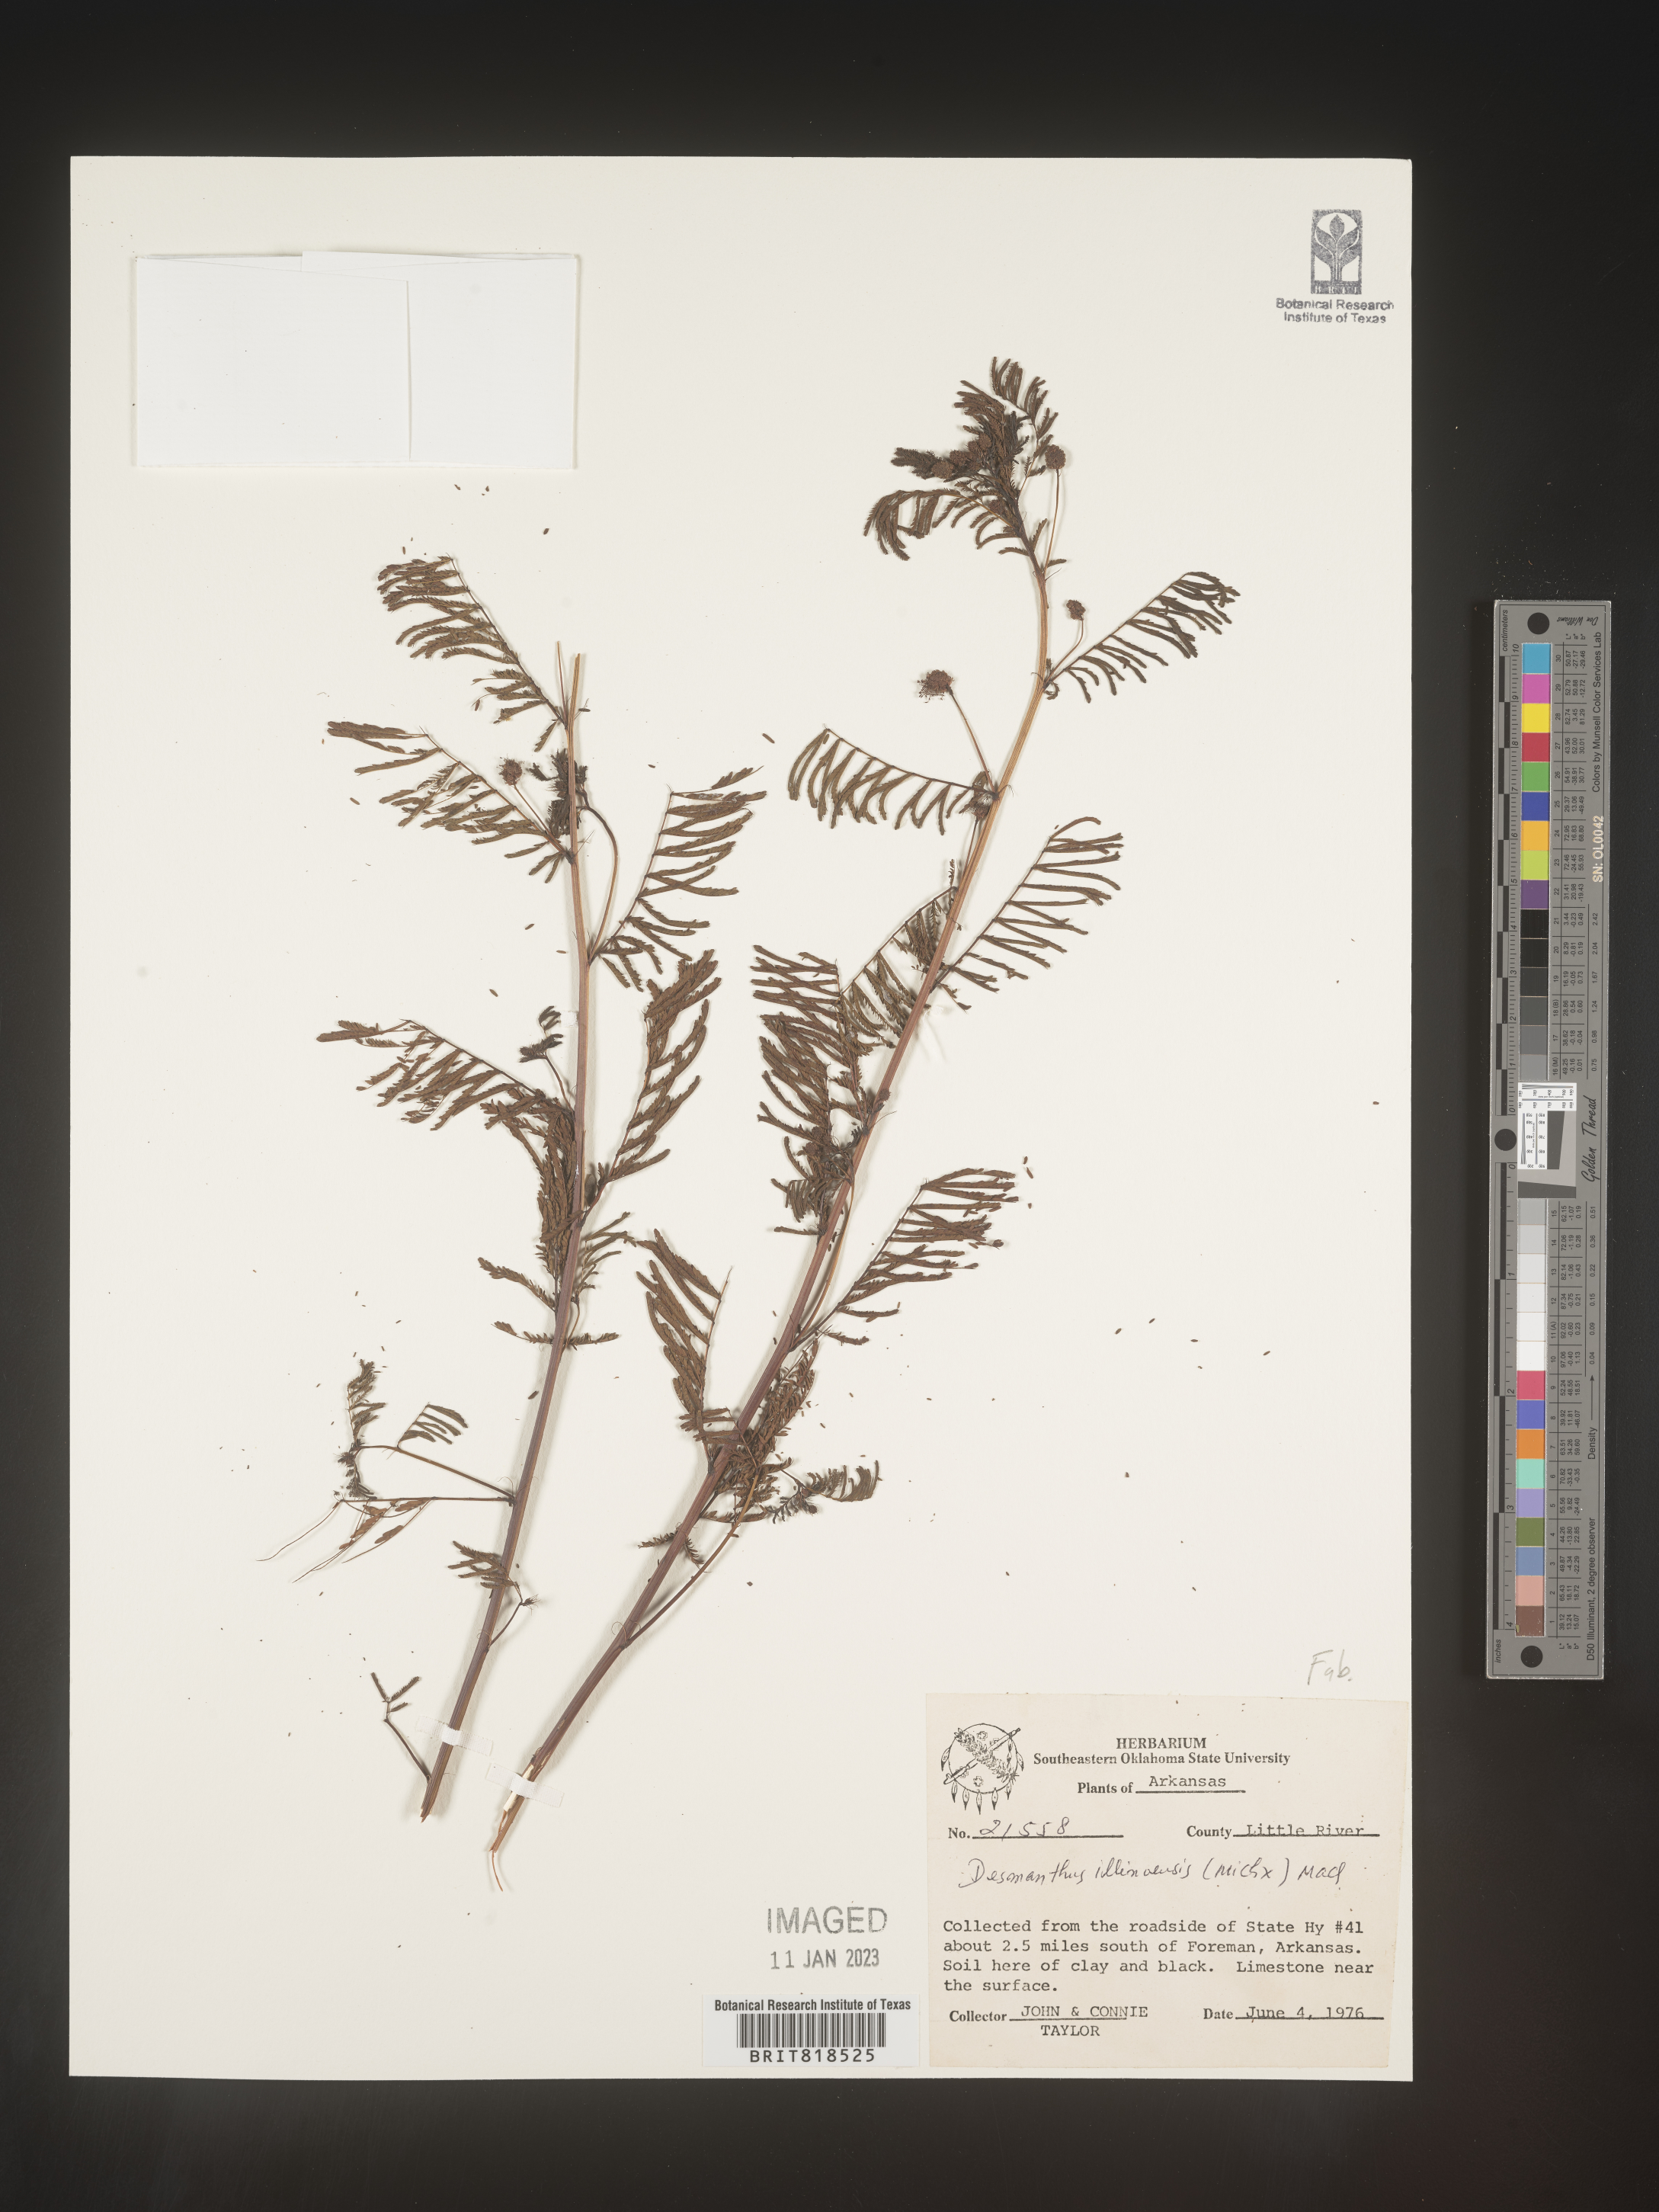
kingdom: Plantae
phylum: Tracheophyta
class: Magnoliopsida
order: Fabales
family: Fabaceae
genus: Desmanthus
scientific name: Desmanthus illinoensis
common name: Illinois bundle-flower
